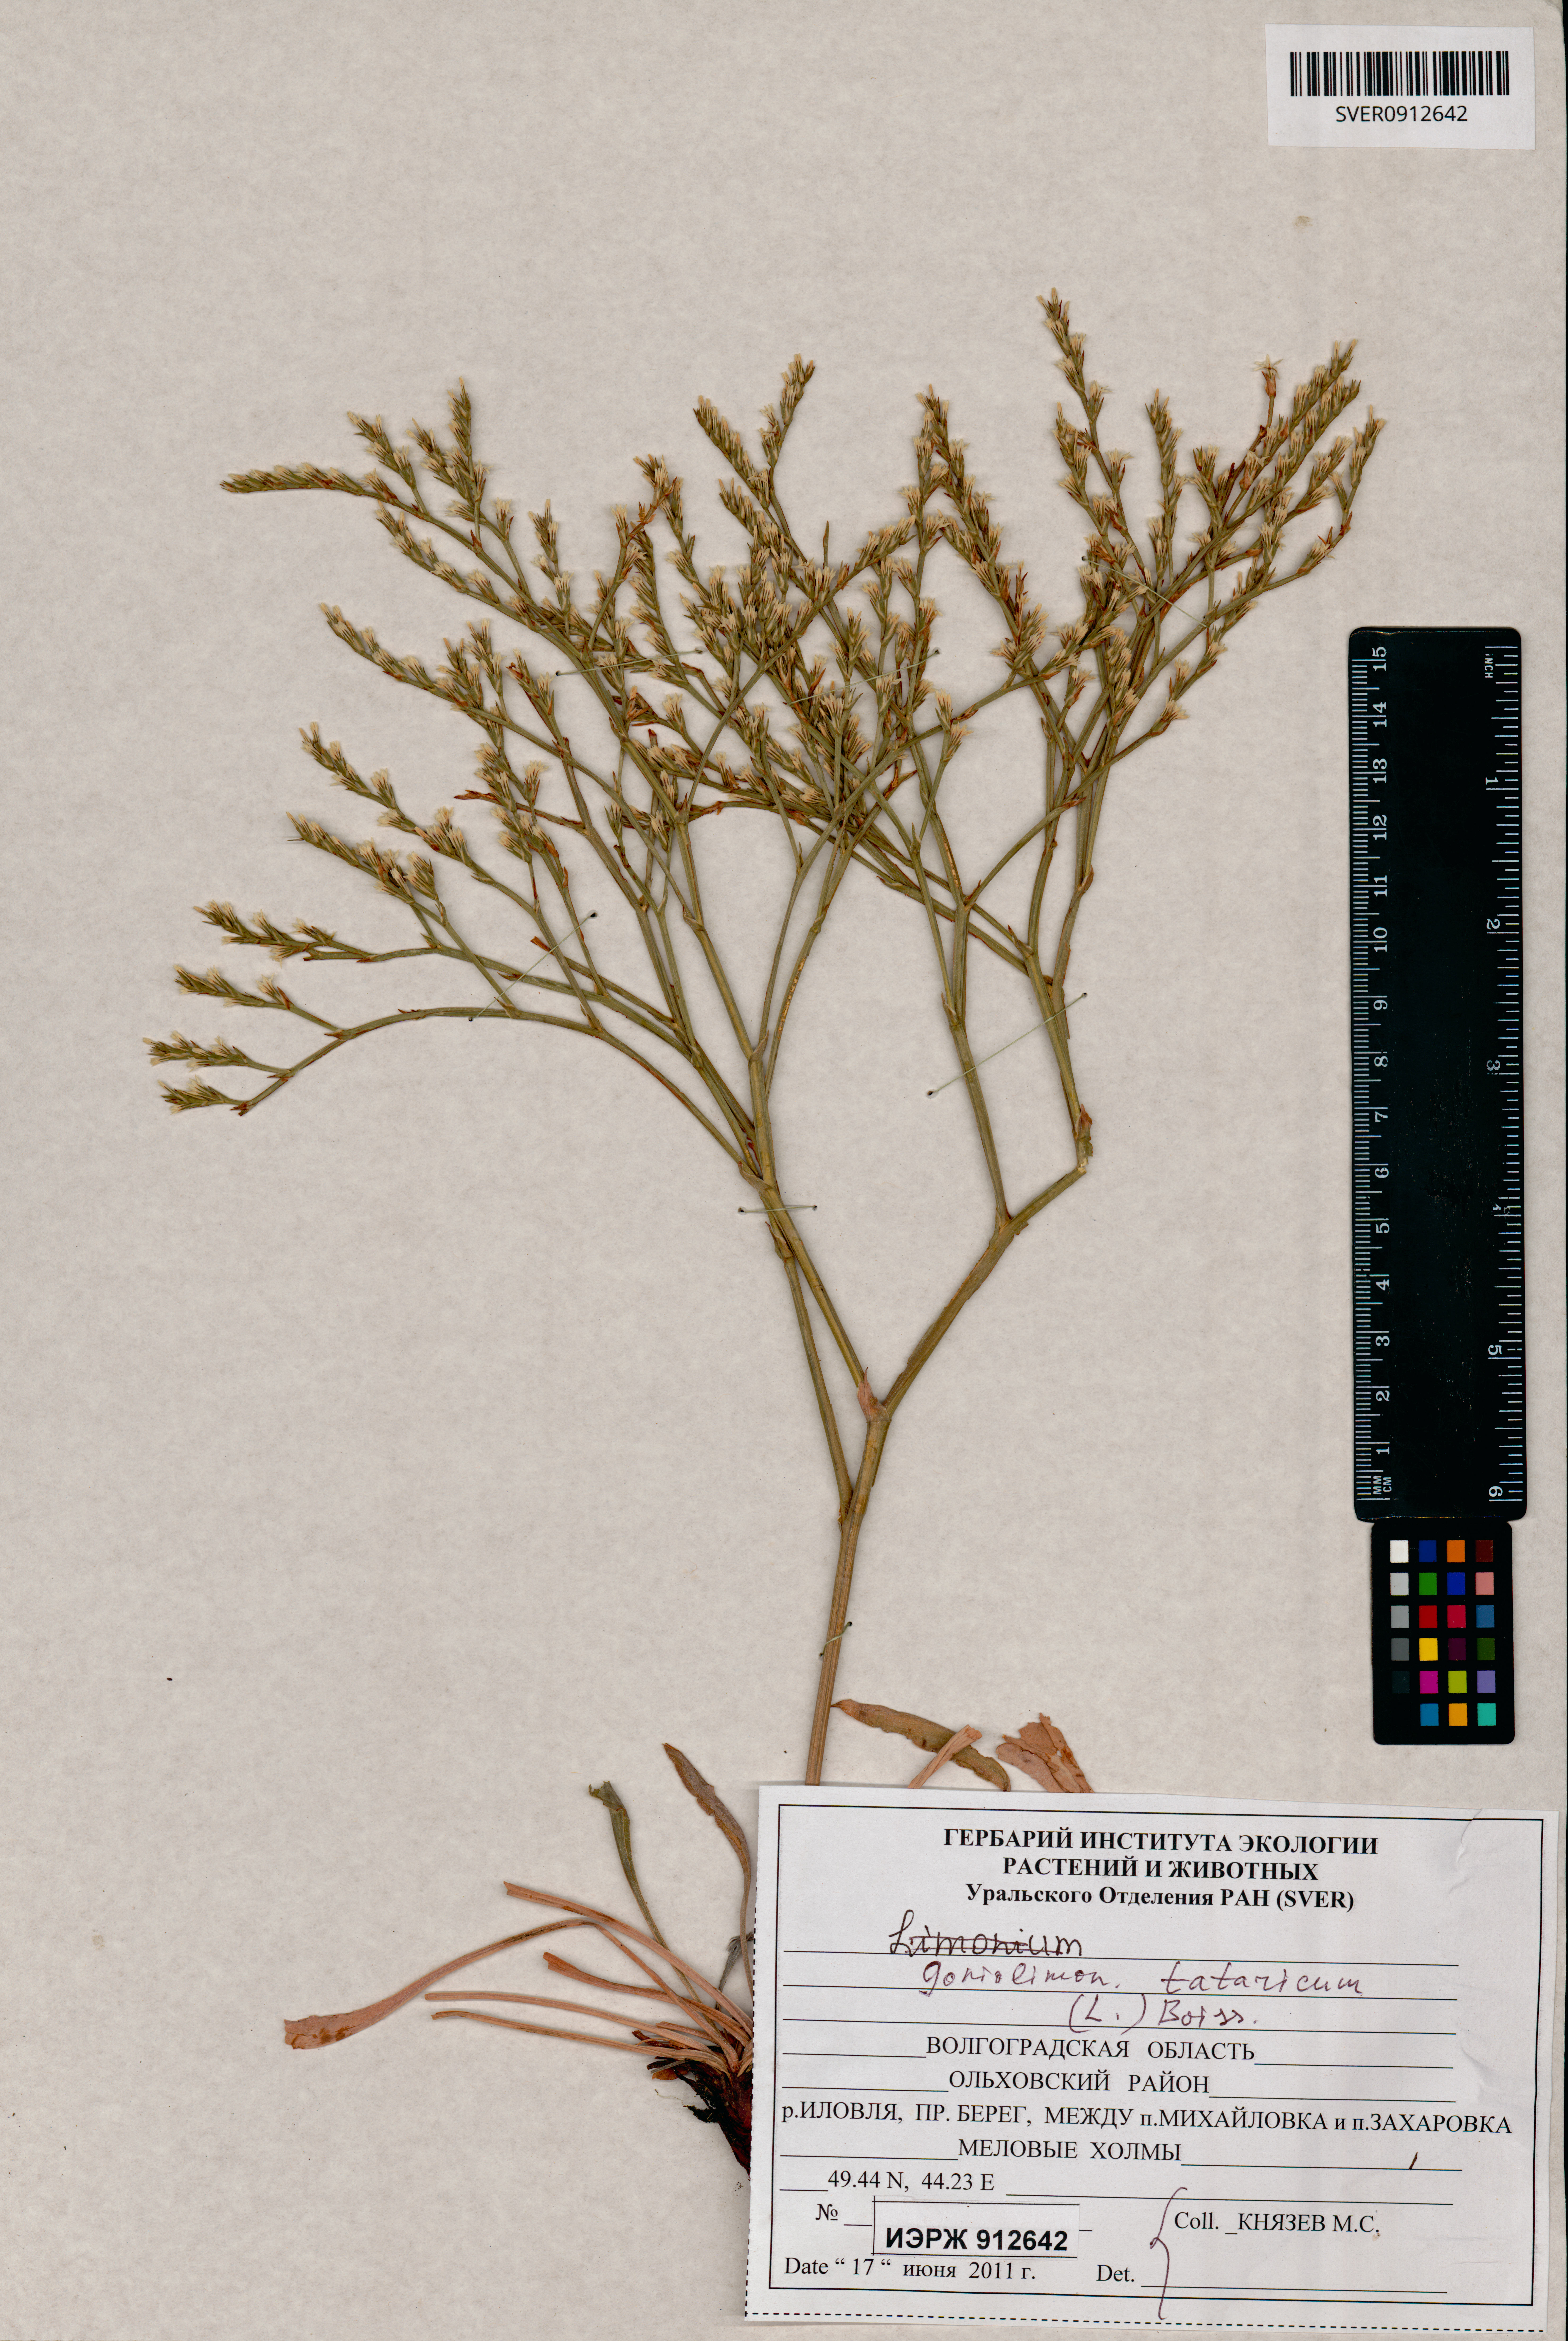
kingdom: Plantae
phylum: Tracheophyta
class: Magnoliopsida
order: Caryophyllales
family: Plumbaginaceae
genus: Goniolimon
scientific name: Goniolimon tataricum
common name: Statice
